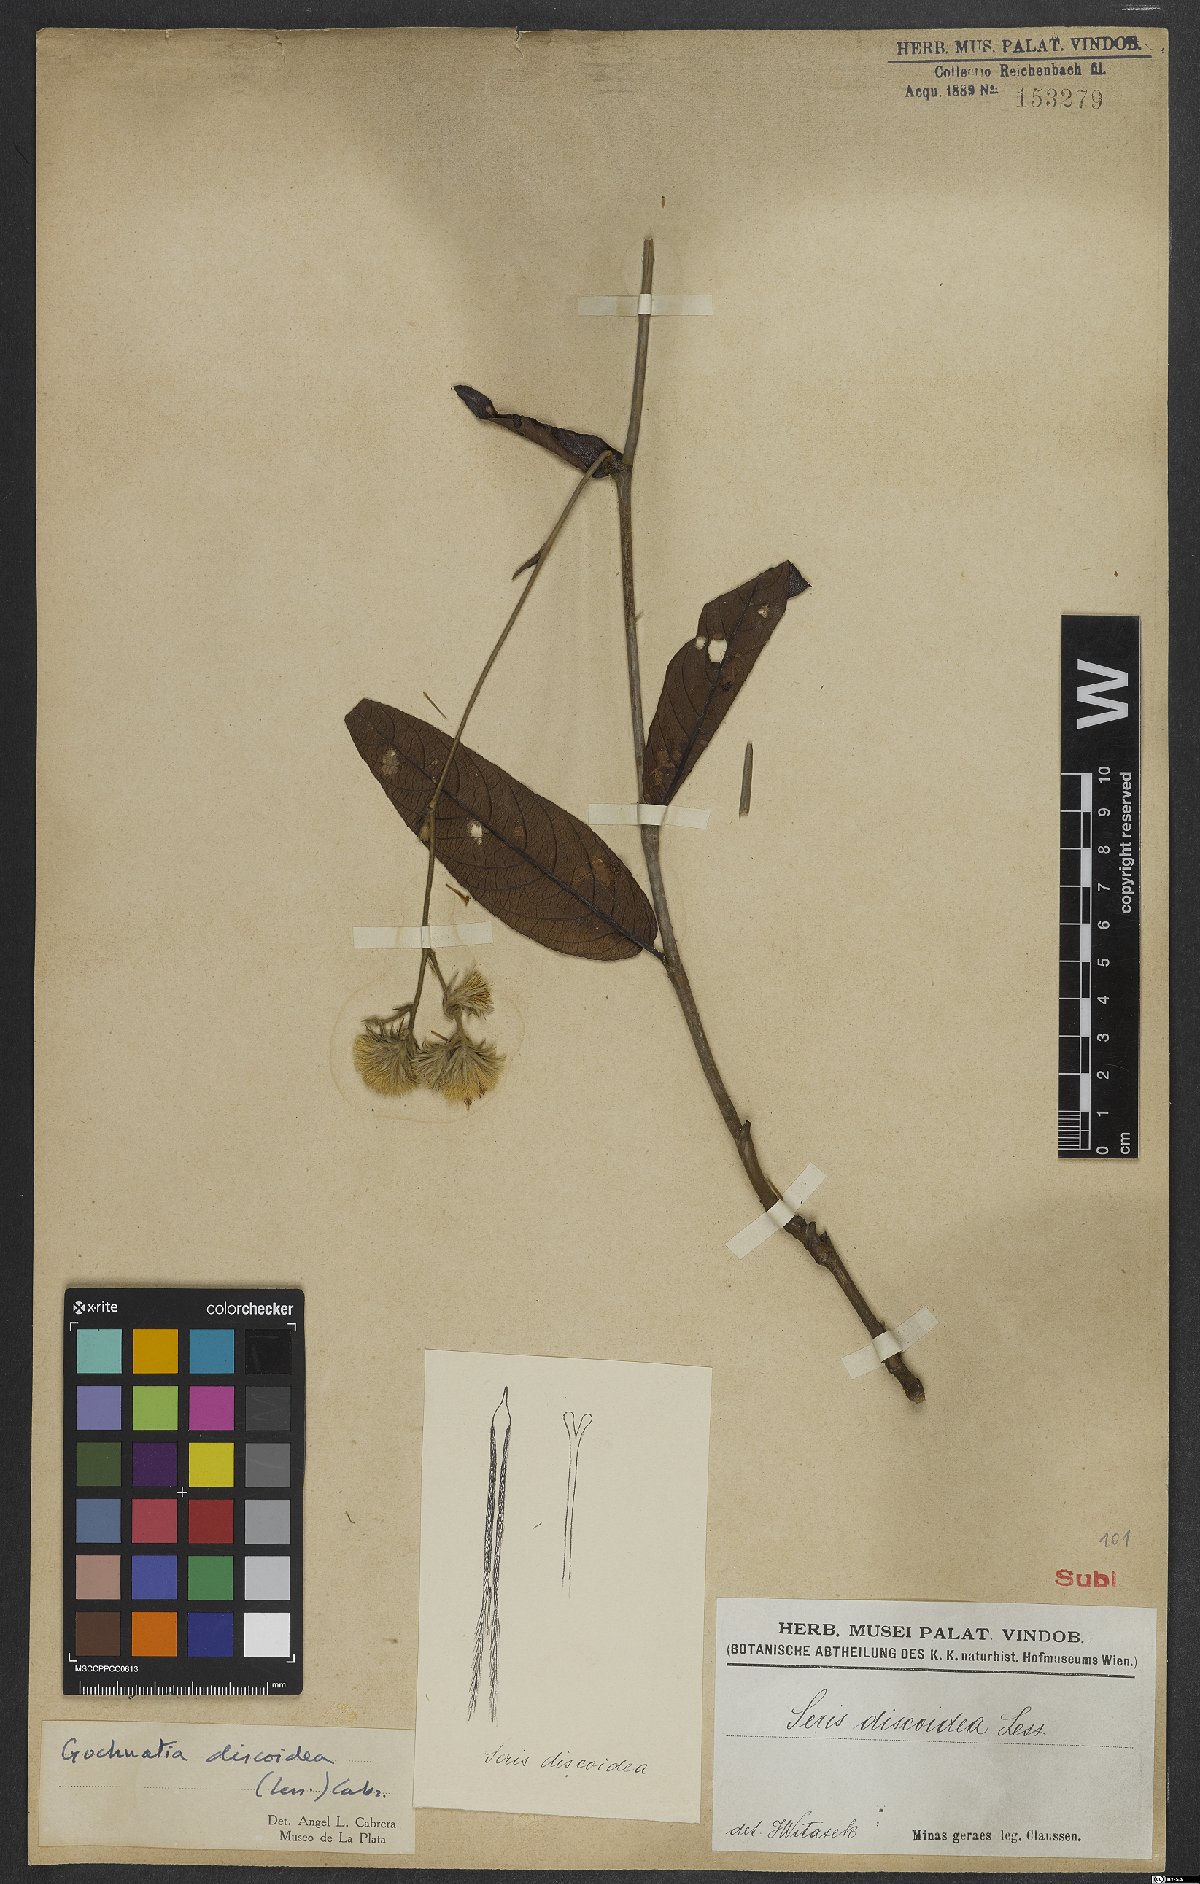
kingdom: Plantae
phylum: Tracheophyta
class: Magnoliopsida
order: Asterales
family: Asteraceae
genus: Richterago
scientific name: Richterago discoidea
